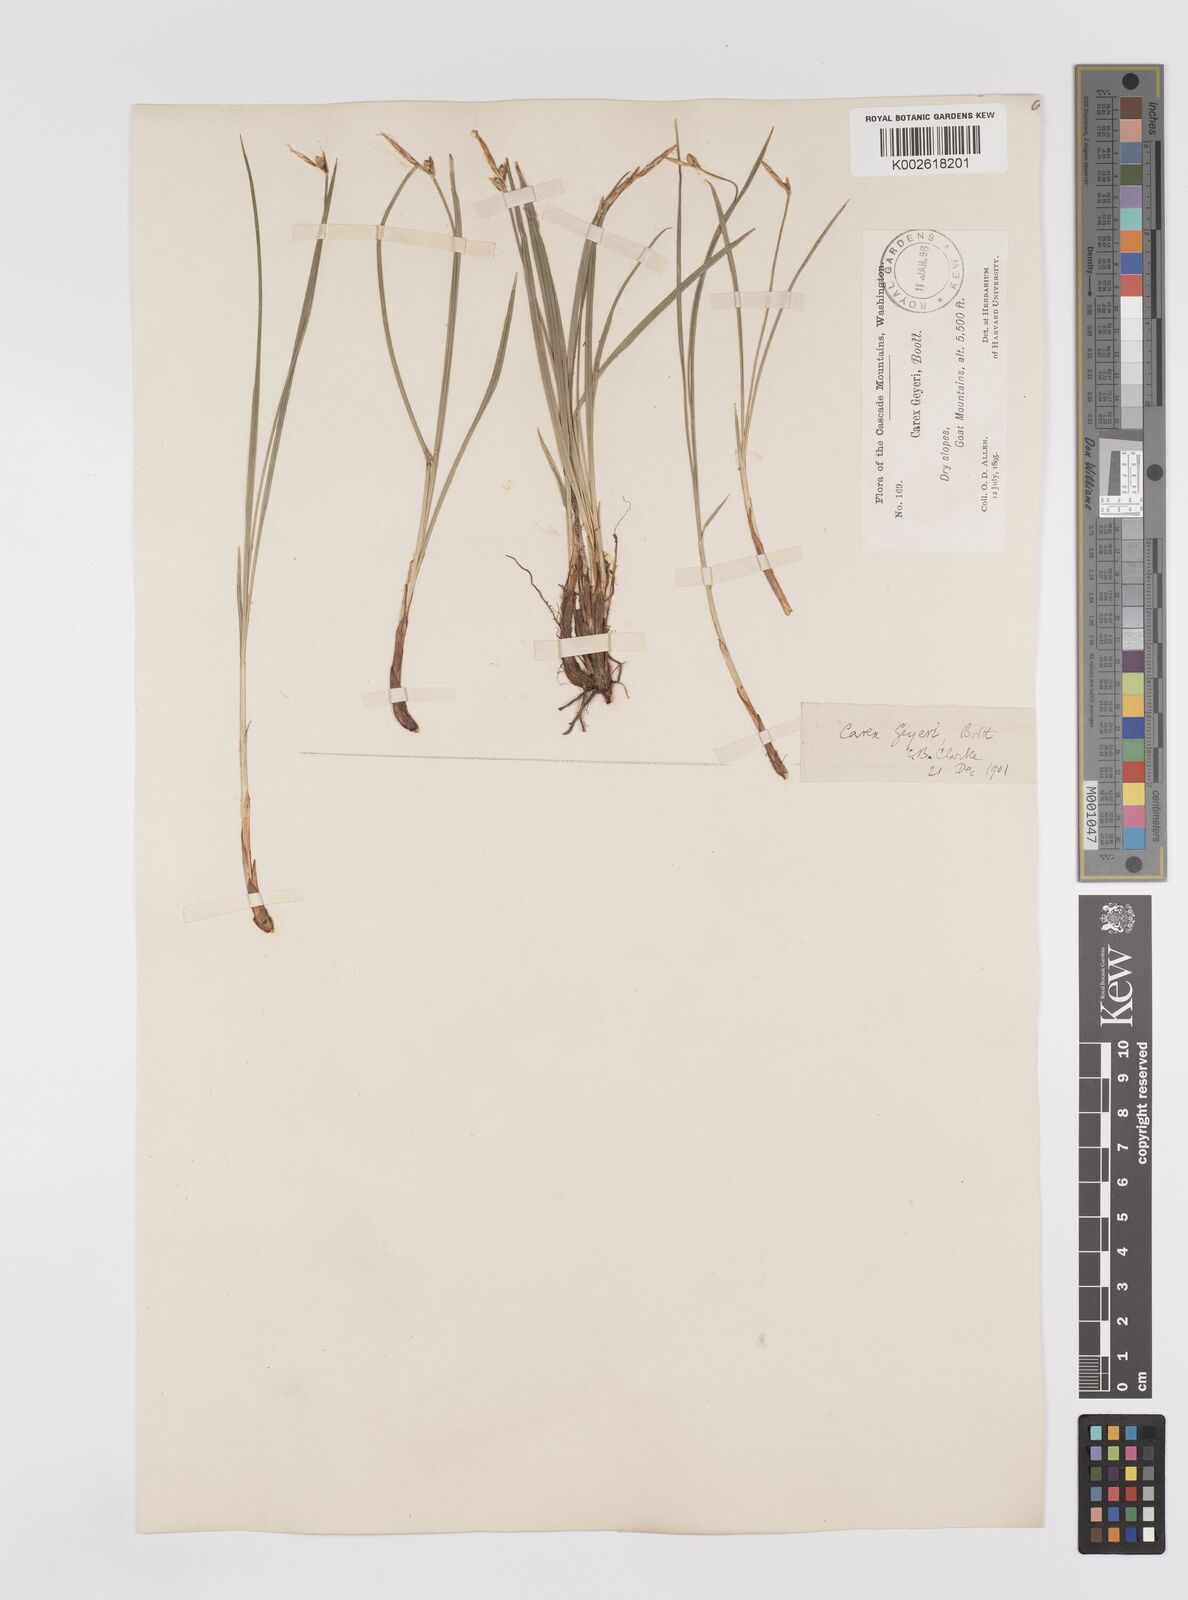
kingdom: Plantae
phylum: Tracheophyta
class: Liliopsida
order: Poales
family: Cyperaceae
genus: Carex
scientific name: Carex geyeri
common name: Elk sedge
